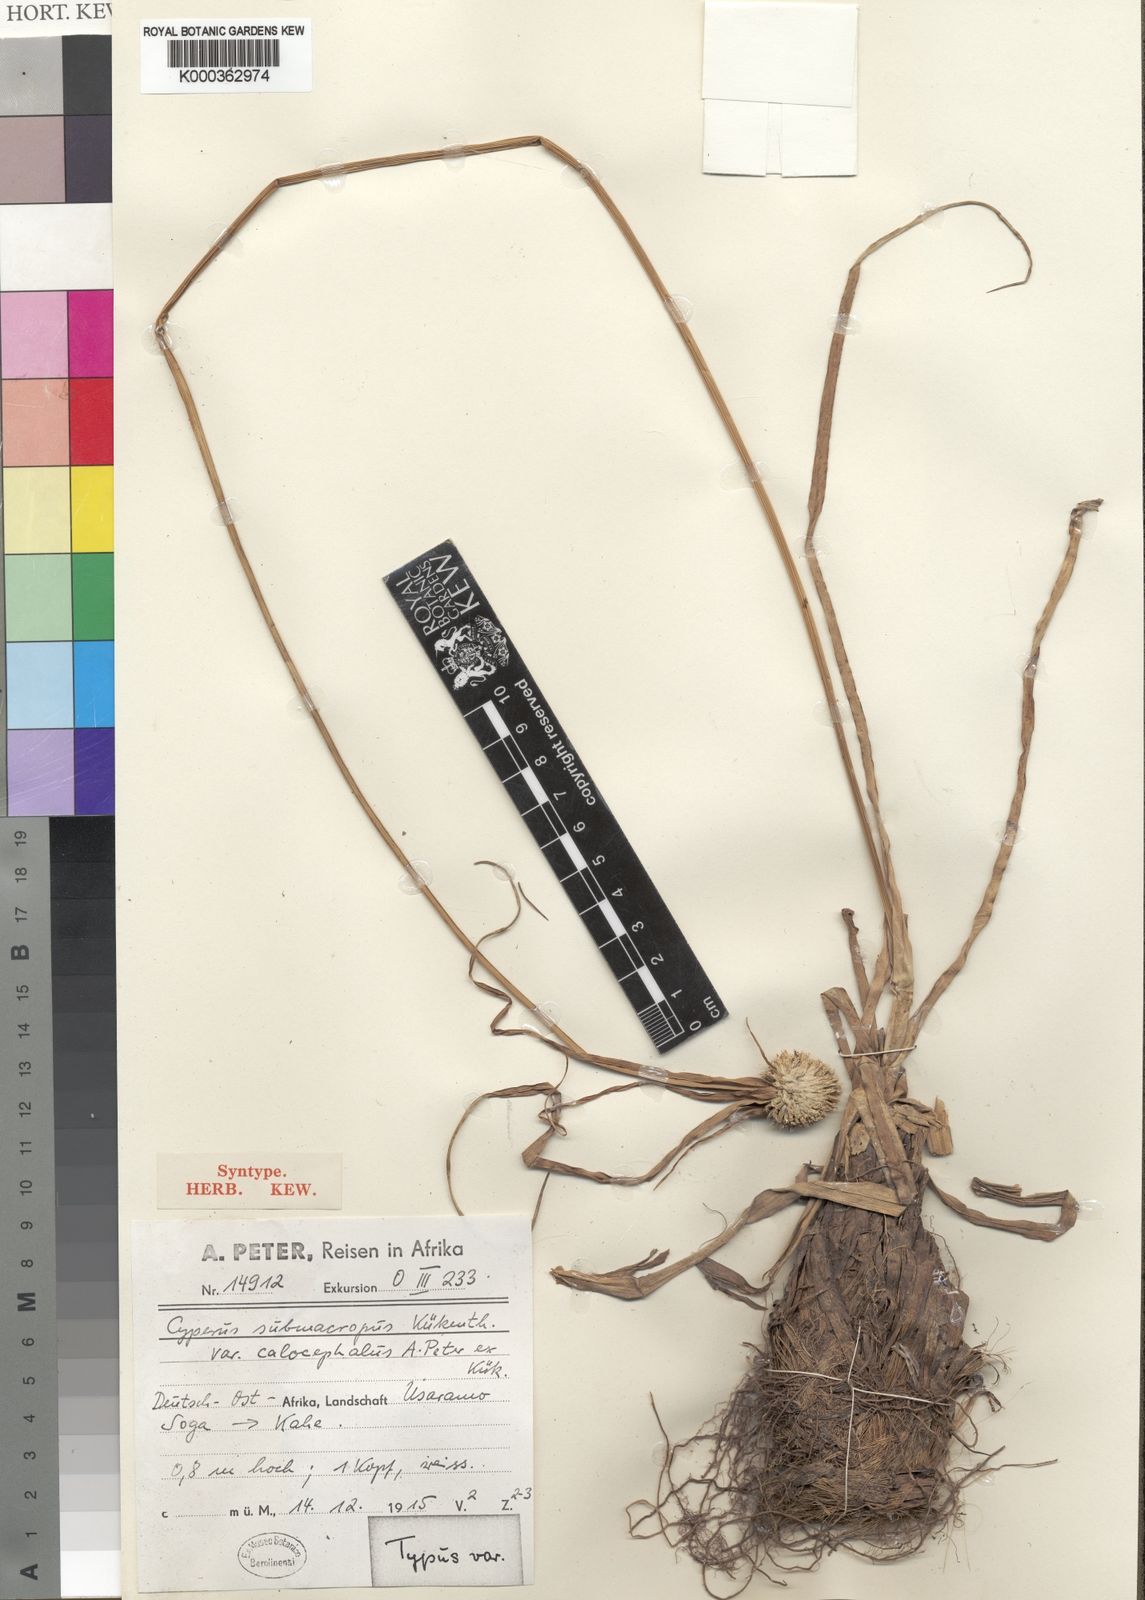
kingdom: Plantae
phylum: Tracheophyta
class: Liliopsida
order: Poales
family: Cyperaceae
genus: Cyperus
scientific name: Cyperus
